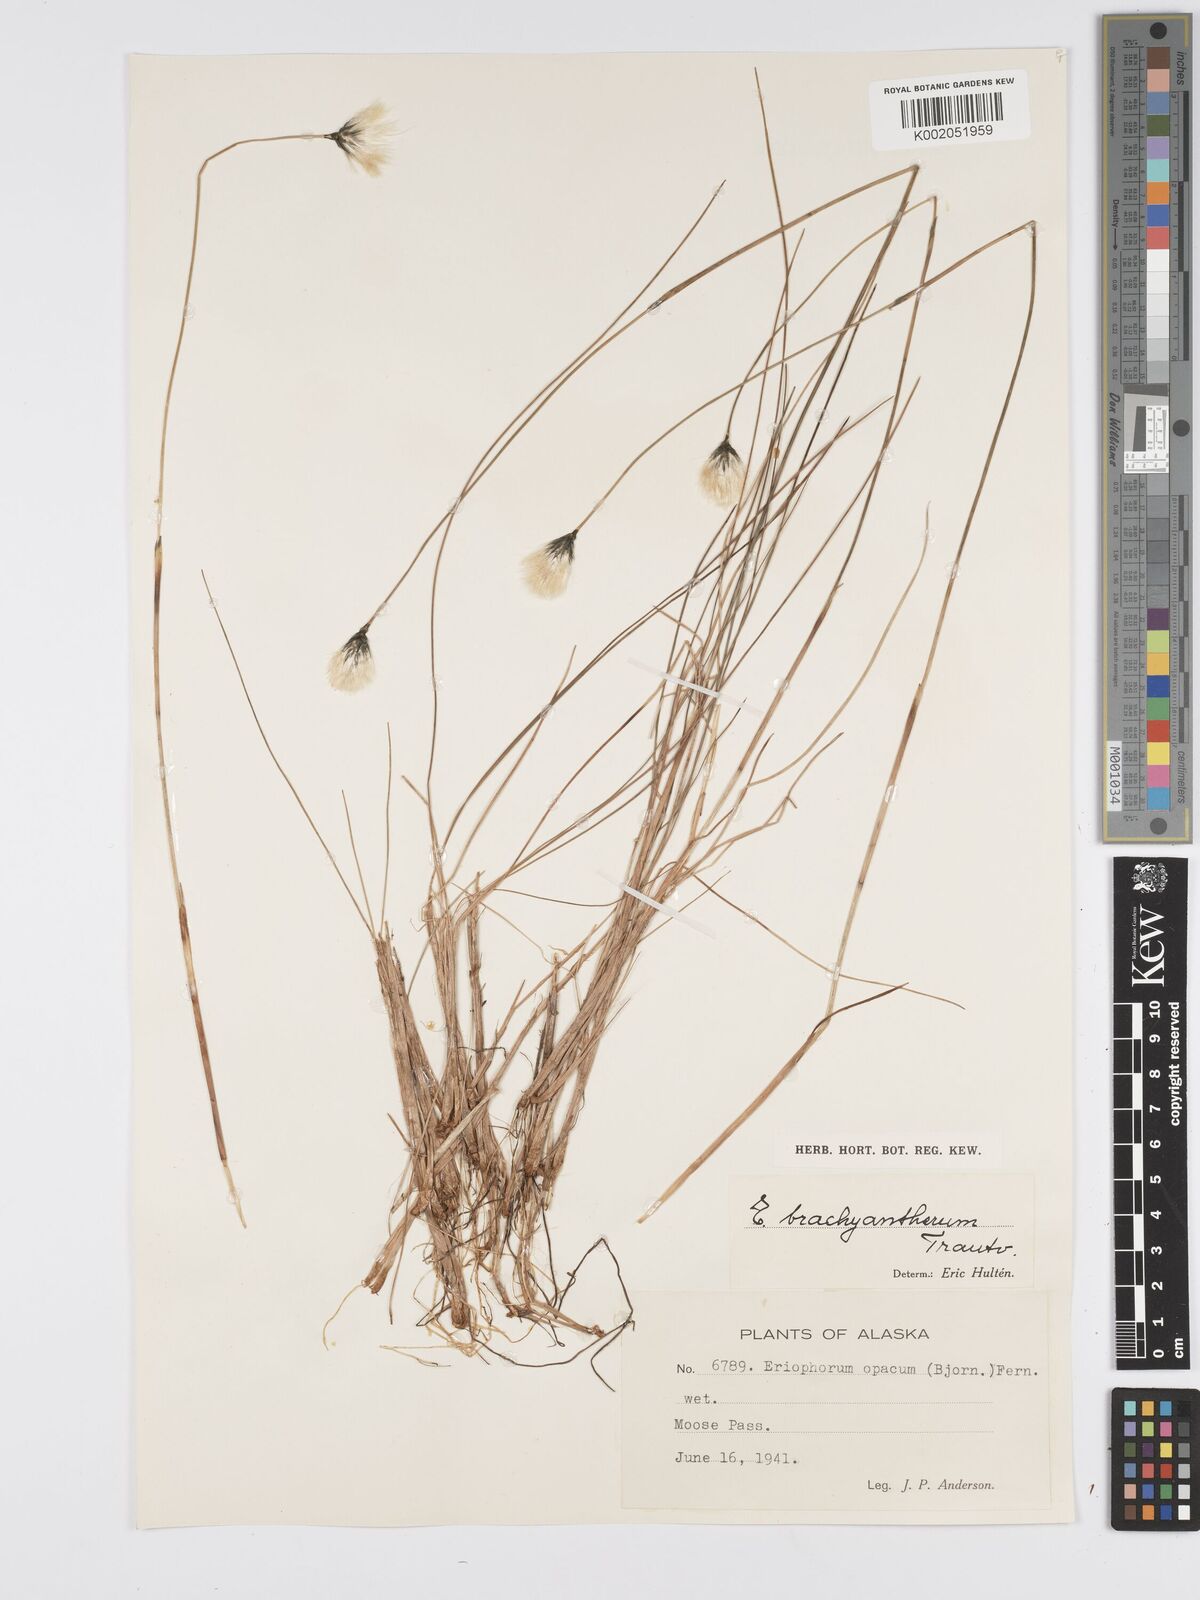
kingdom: Plantae
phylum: Tracheophyta
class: Liliopsida
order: Poales
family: Cyperaceae
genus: Eriophorum
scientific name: Eriophorum brachyantherum
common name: Closed-sheathed cottongrass
